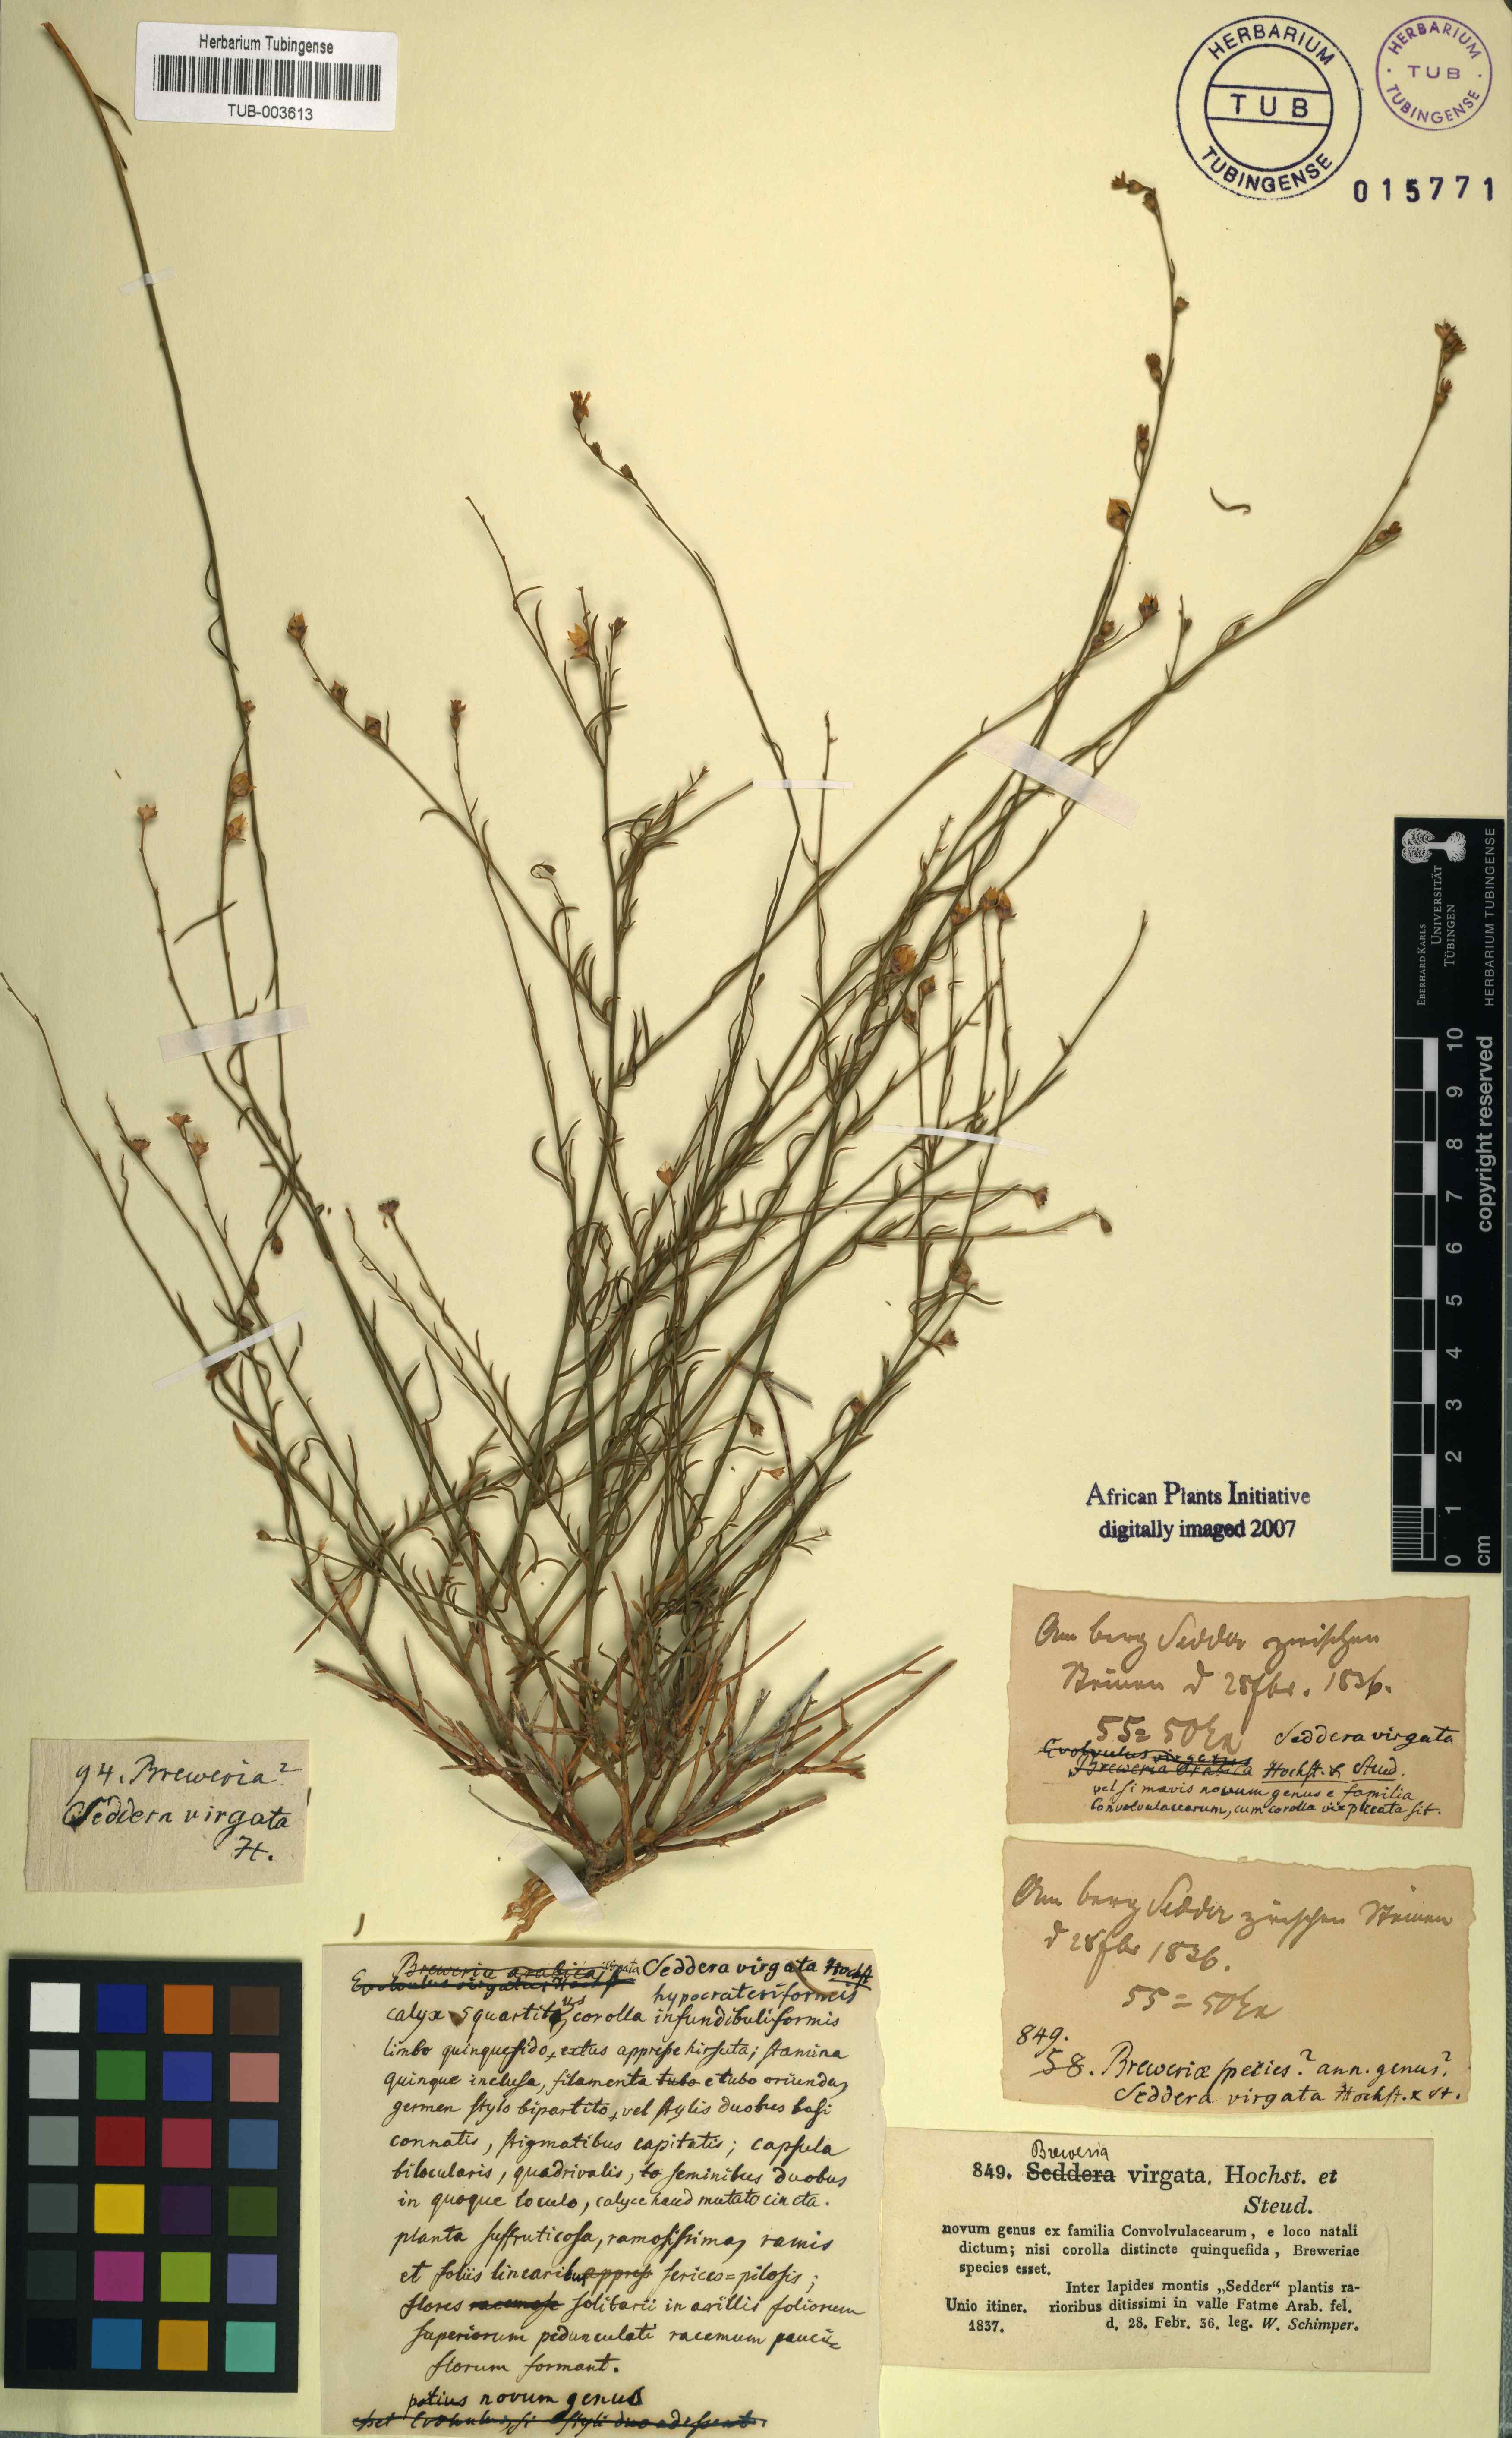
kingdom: Plantae
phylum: Tracheophyta
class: Magnoliopsida
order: Solanales
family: Convolvulaceae
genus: Seddera
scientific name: Seddera virgata
